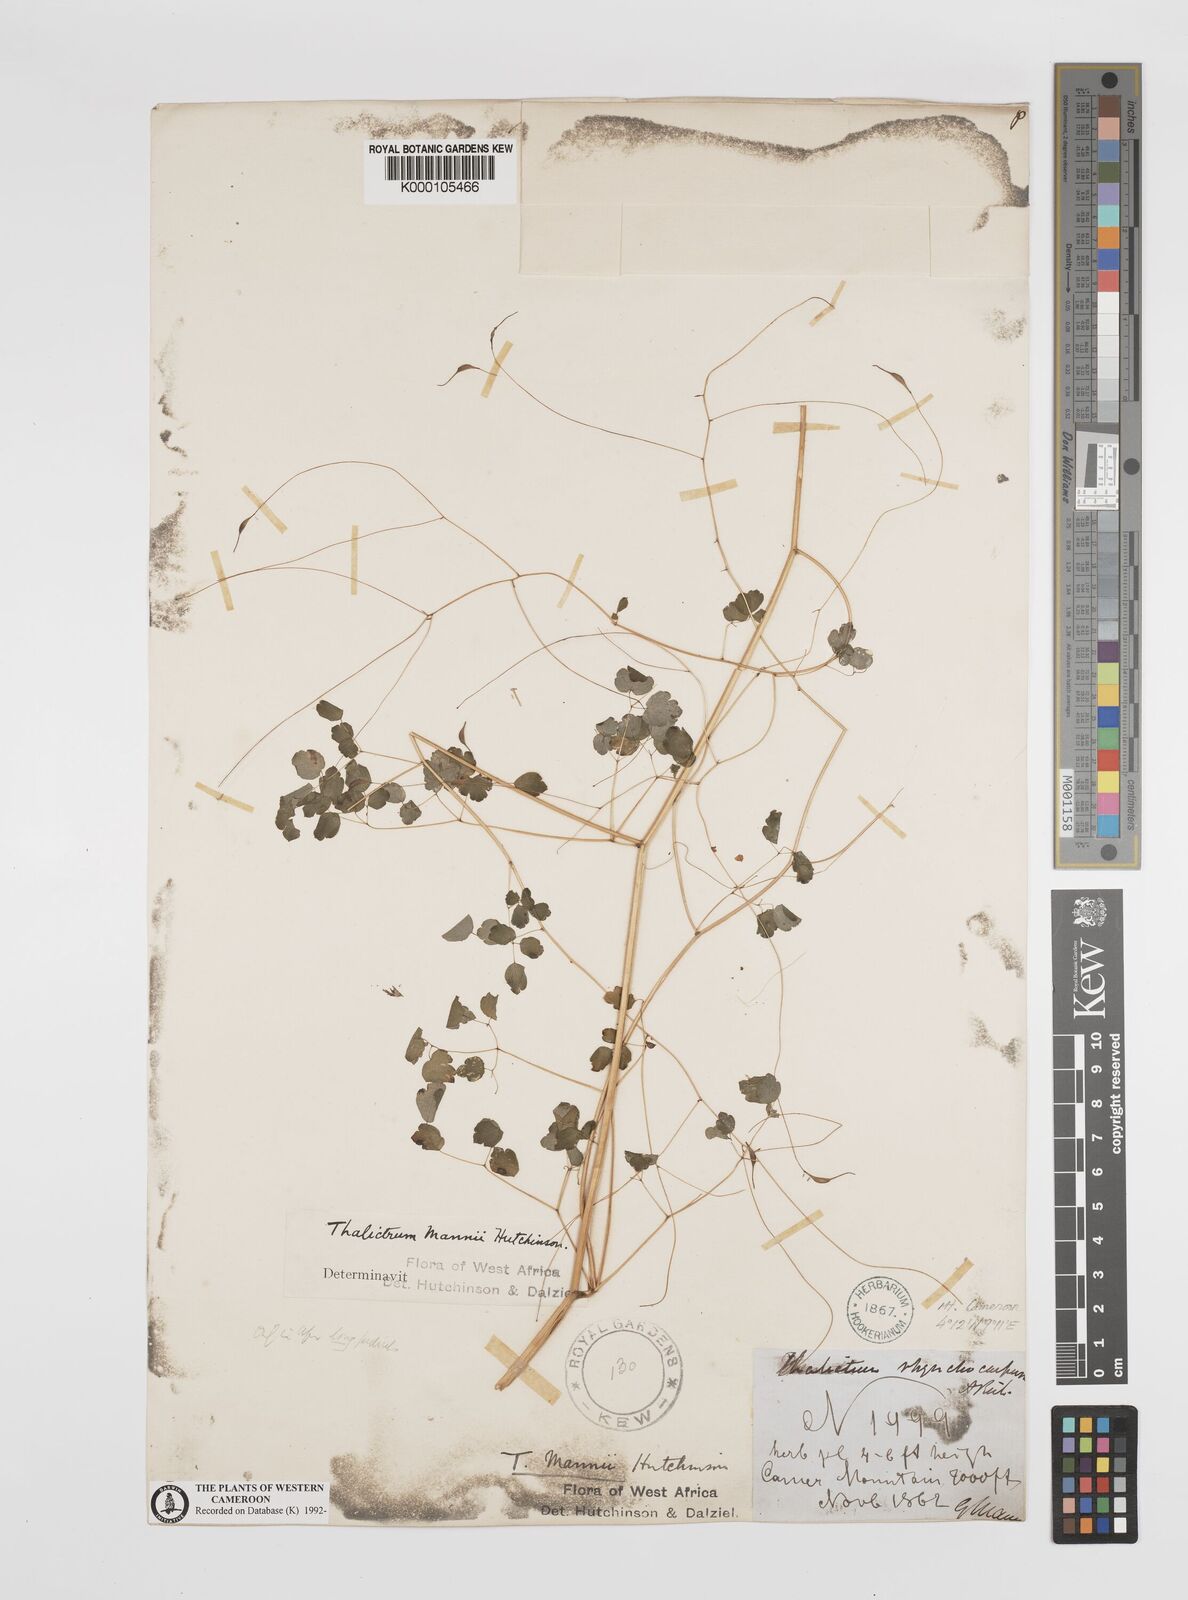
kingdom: Plantae
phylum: Tracheophyta
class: Magnoliopsida
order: Ranunculales
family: Ranunculaceae
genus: Thalictrum
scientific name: Thalictrum rhynchocarpum
